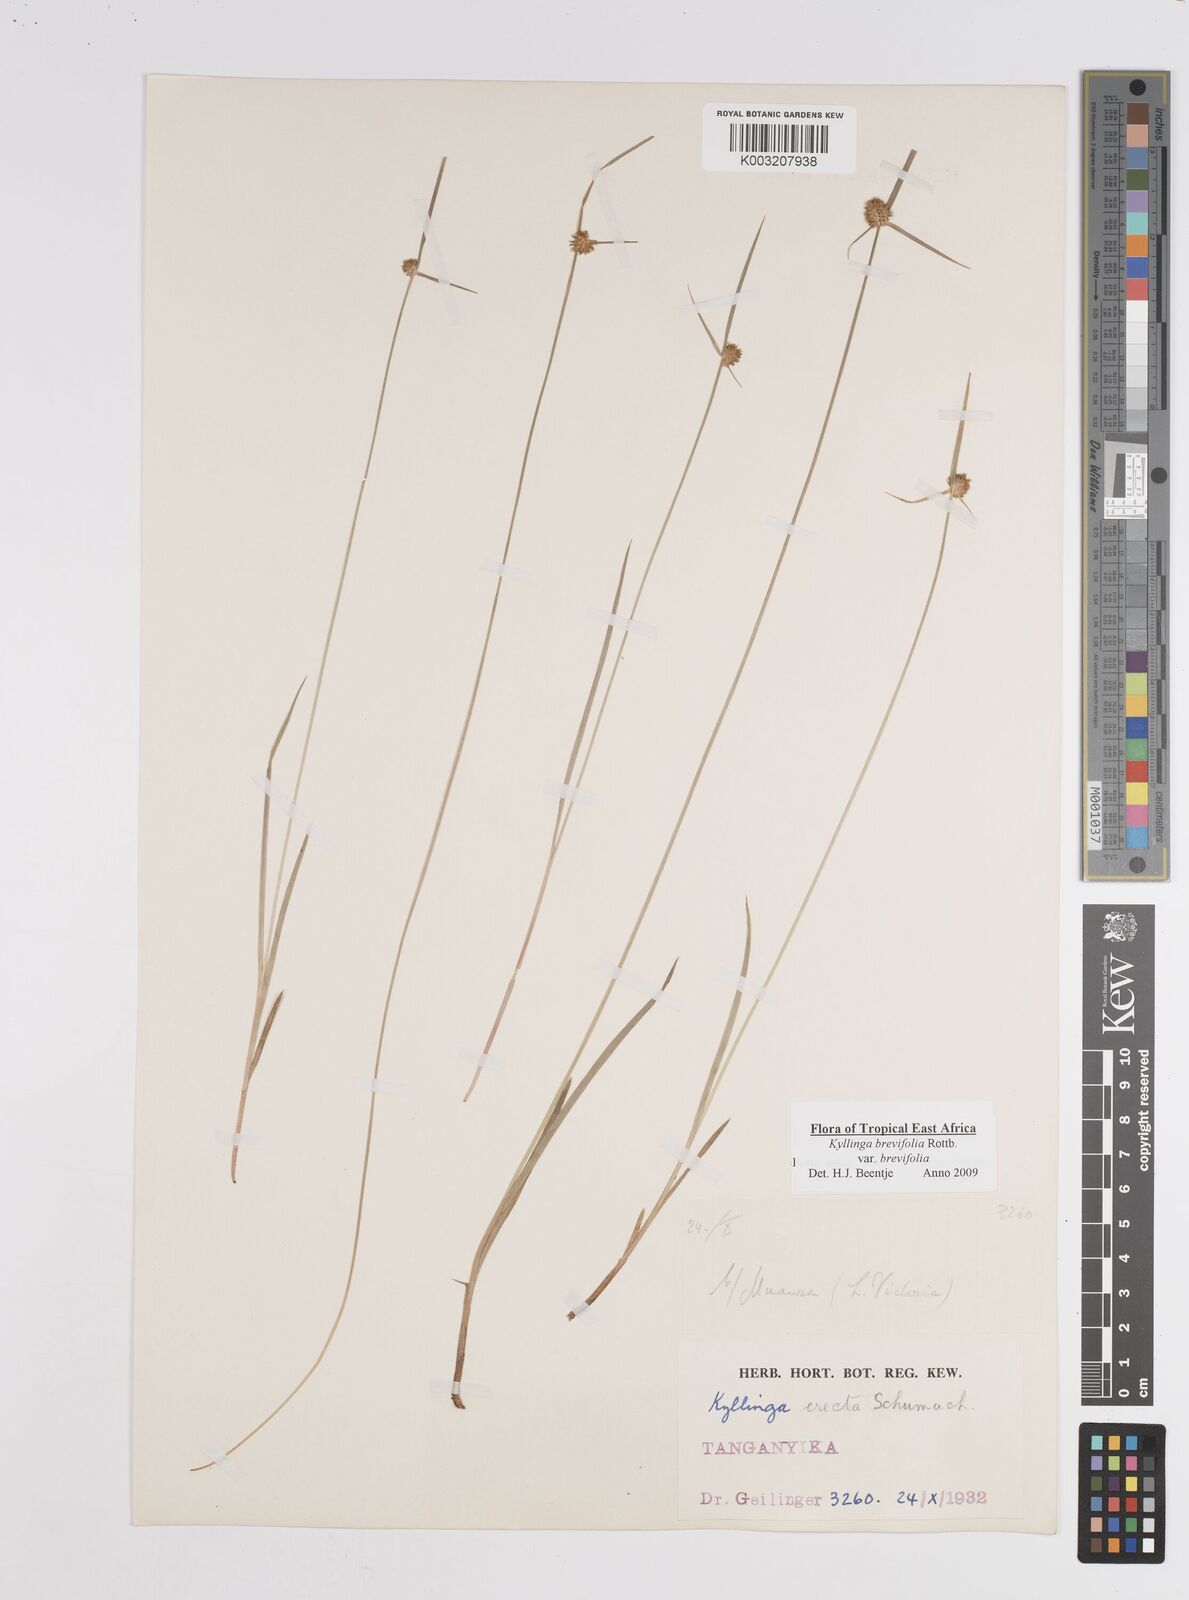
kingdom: Plantae
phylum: Tracheophyta
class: Liliopsida
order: Poales
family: Cyperaceae
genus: Cyperus
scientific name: Cyperus brevifolius
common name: Globe kyllinga
